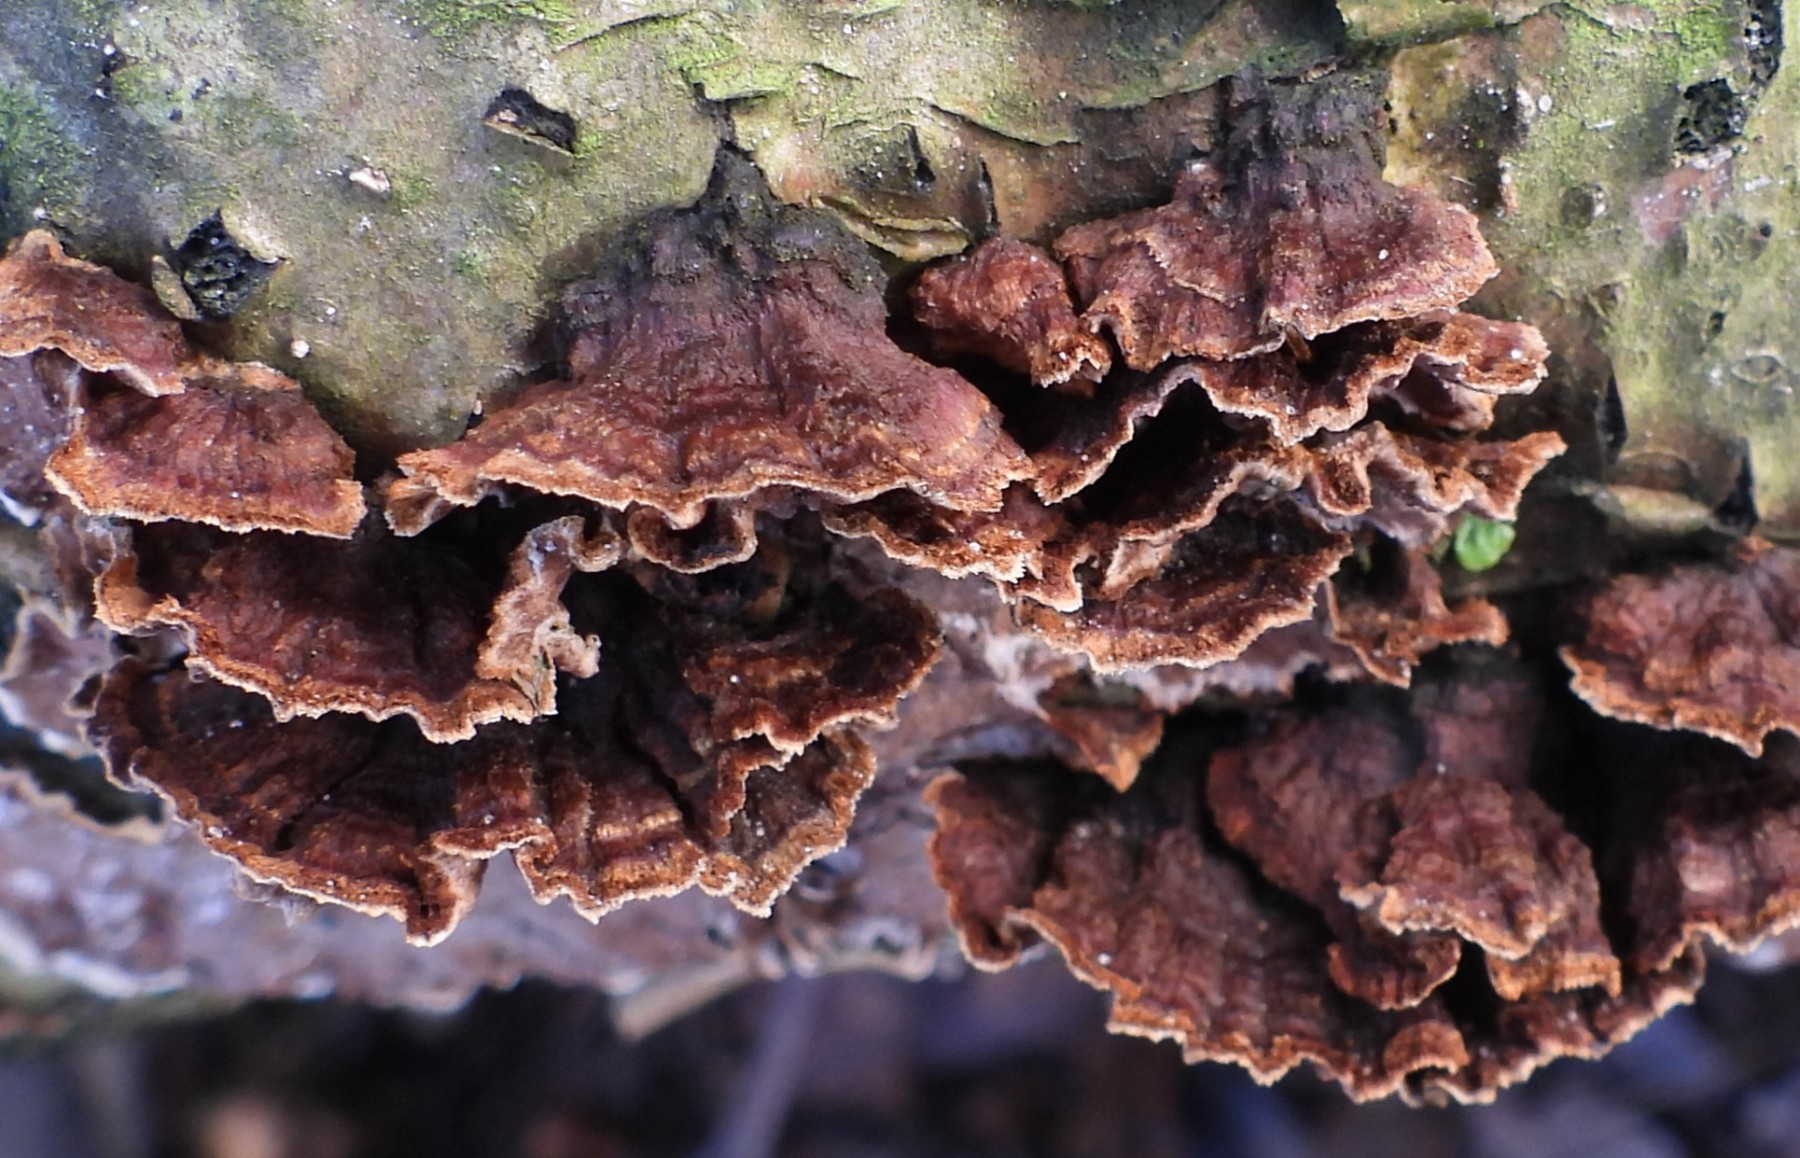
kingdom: Fungi
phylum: Basidiomycota
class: Agaricomycetes
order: Hymenochaetales
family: Hymenochaetaceae
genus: Hydnoporia
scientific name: Hydnoporia tabacina
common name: tobaksbrun ruslædersvamp
